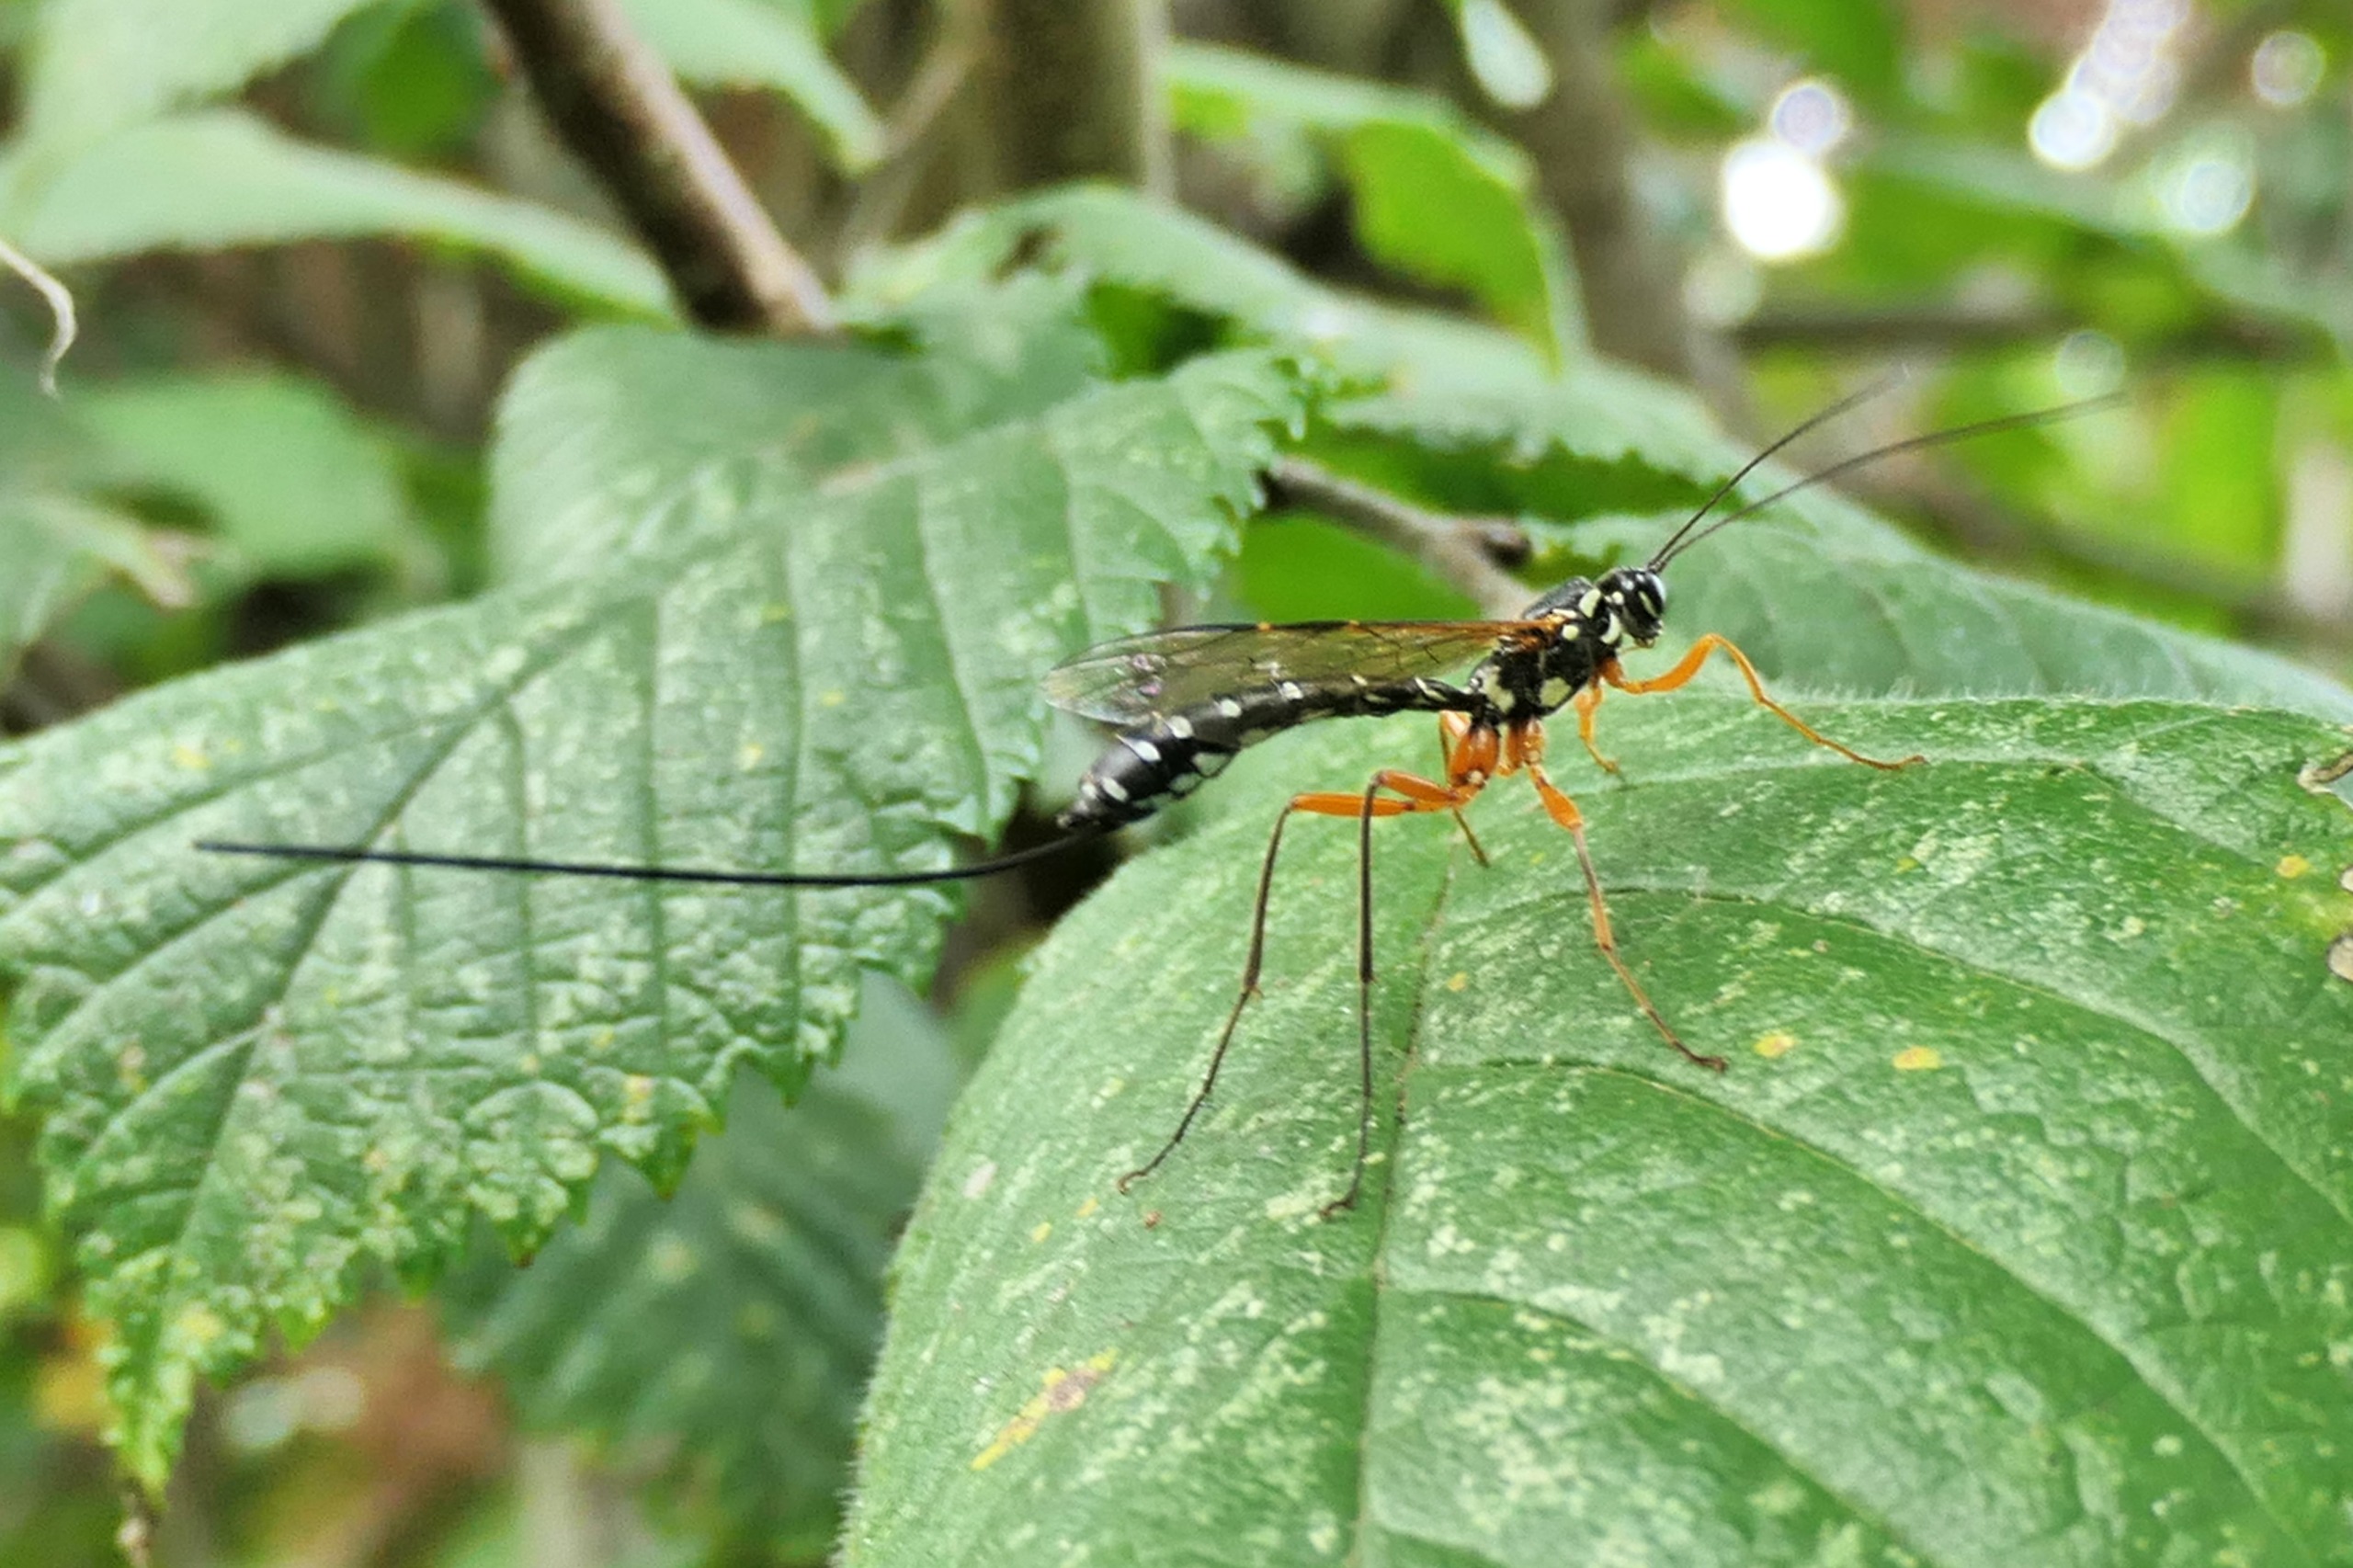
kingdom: Animalia
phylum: Arthropoda
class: Insecta
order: Hymenoptera
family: Ichneumonidae
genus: Rhyssa
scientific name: Rhyssa persuasoria
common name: Sabelhveps
